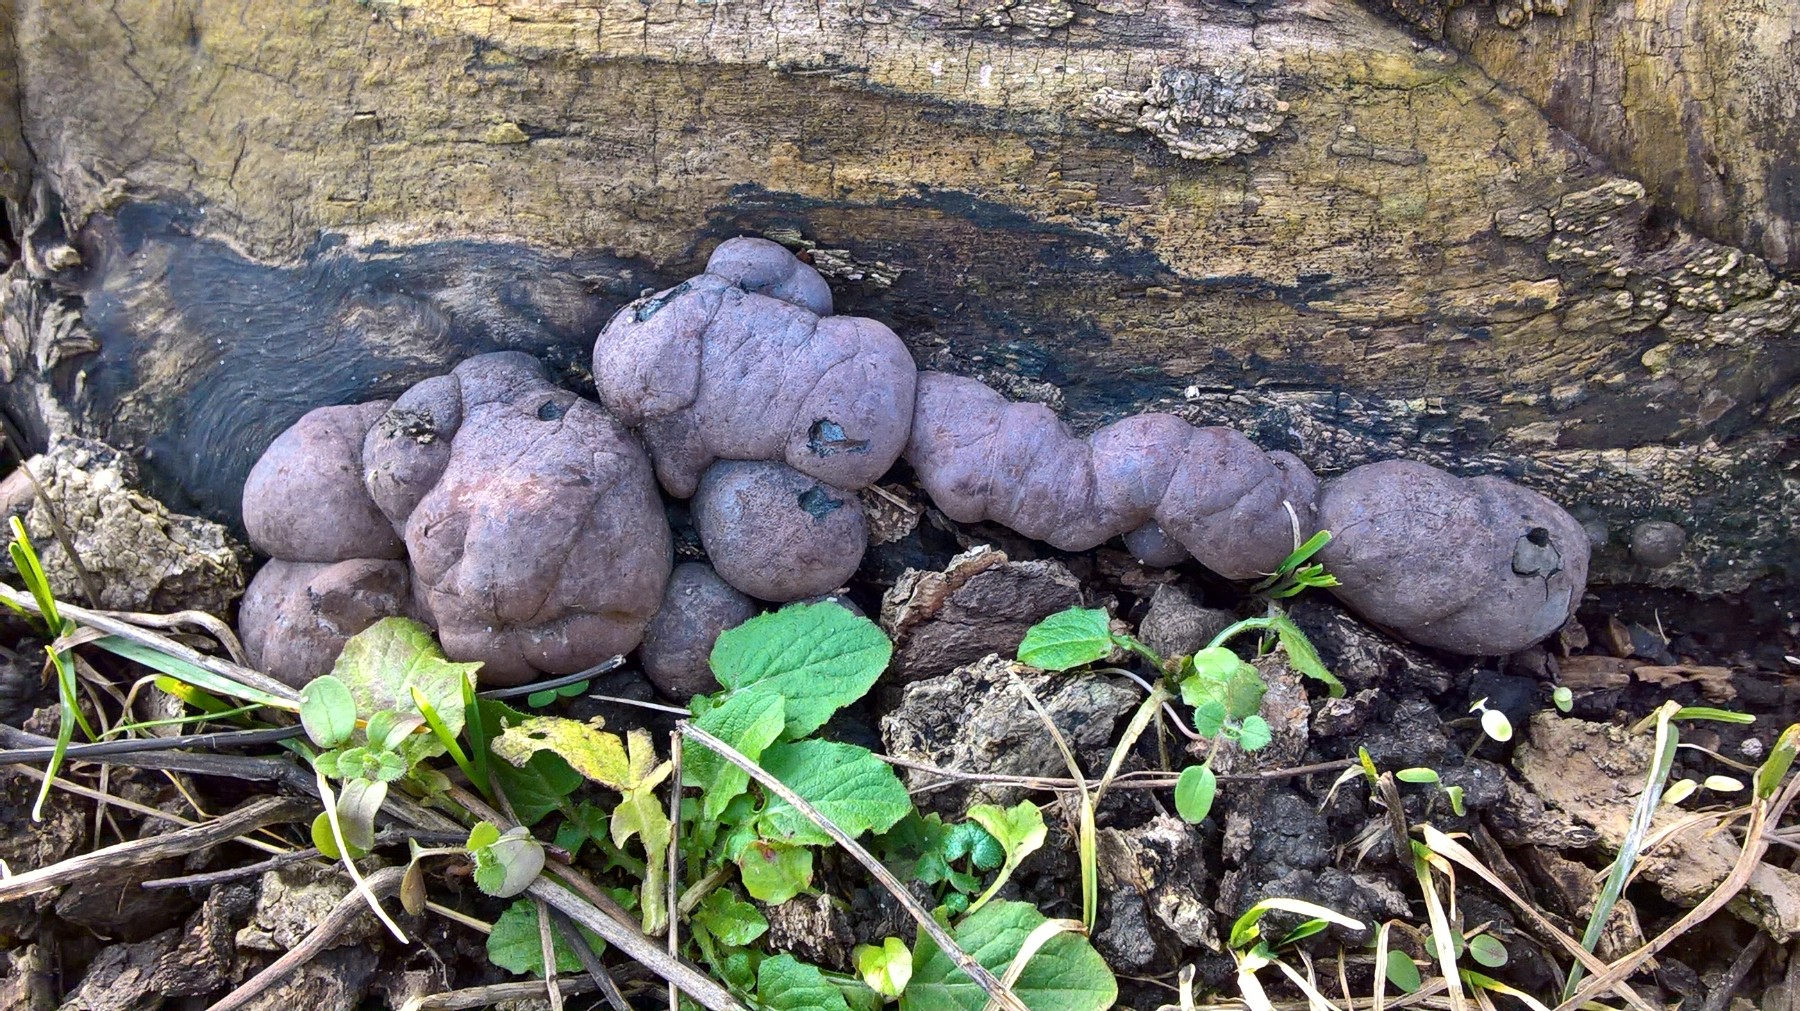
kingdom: Fungi
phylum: Ascomycota
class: Sordariomycetes
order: Xylariales
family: Hypoxylaceae
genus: Daldinia
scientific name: Daldinia concentrica
